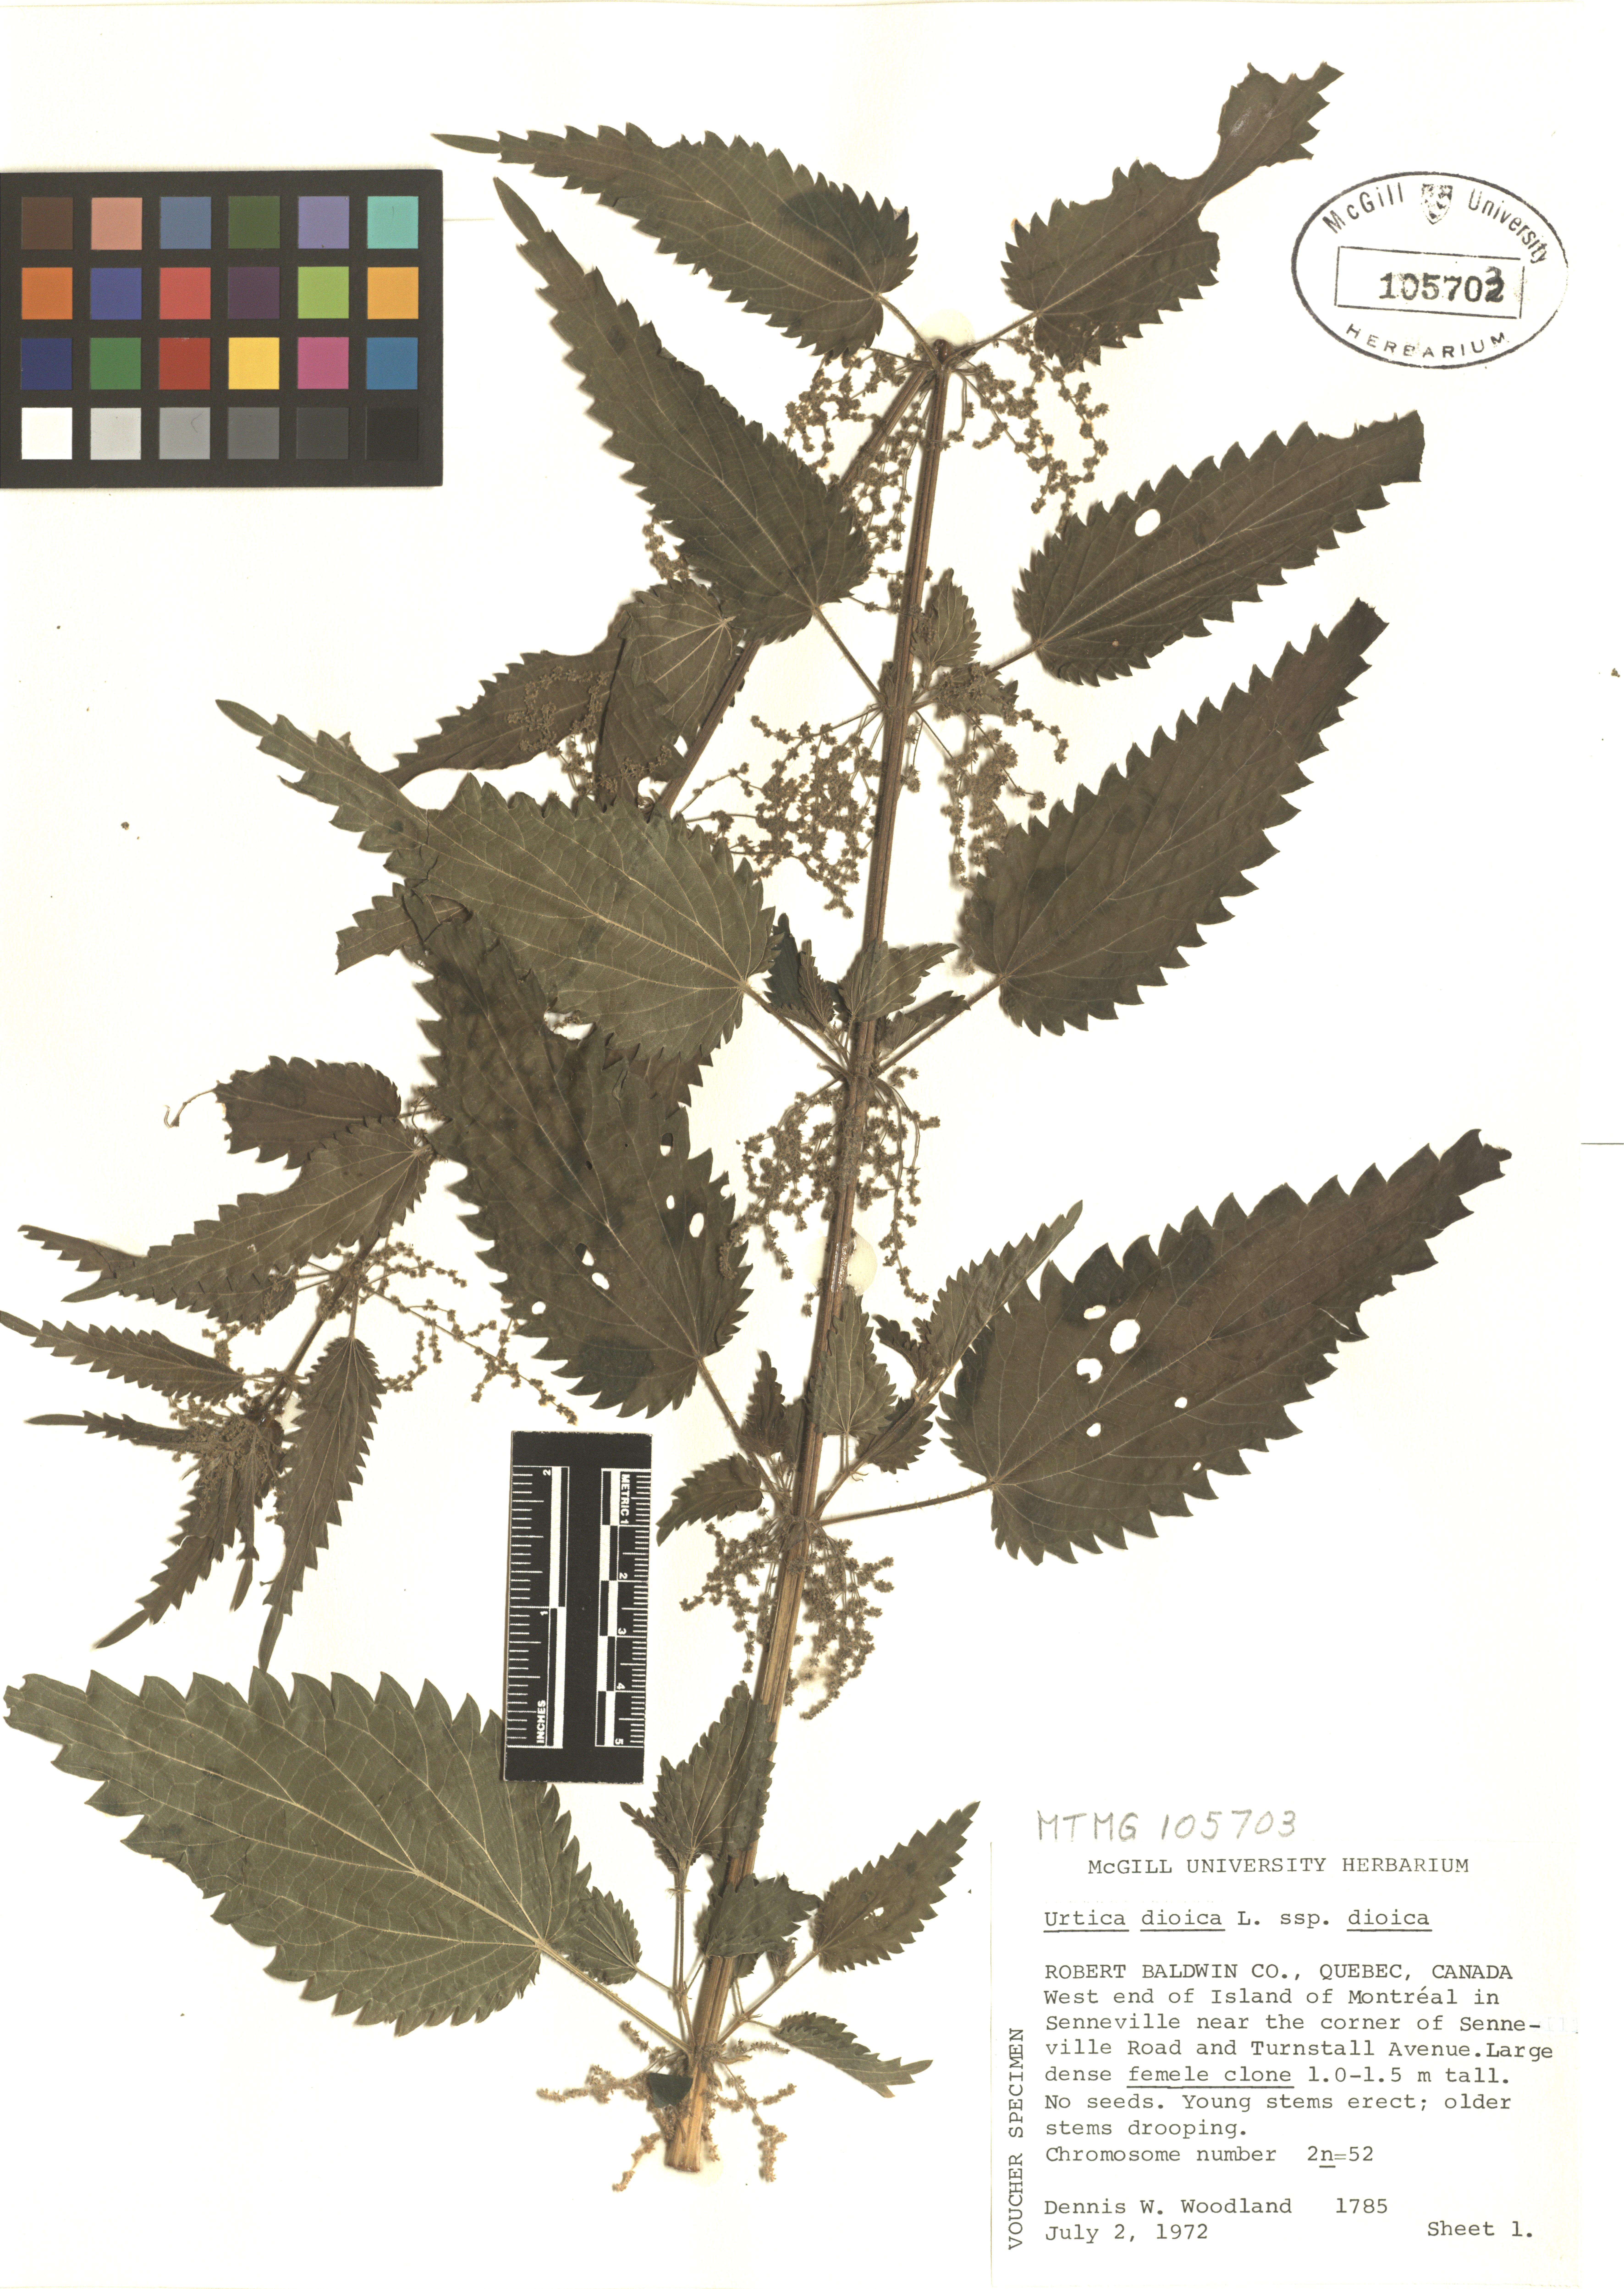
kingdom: Plantae
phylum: Tracheophyta
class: Magnoliopsida
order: Rosales
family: Urticaceae
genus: Urtica
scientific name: Urtica dioica
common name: Common nettle
